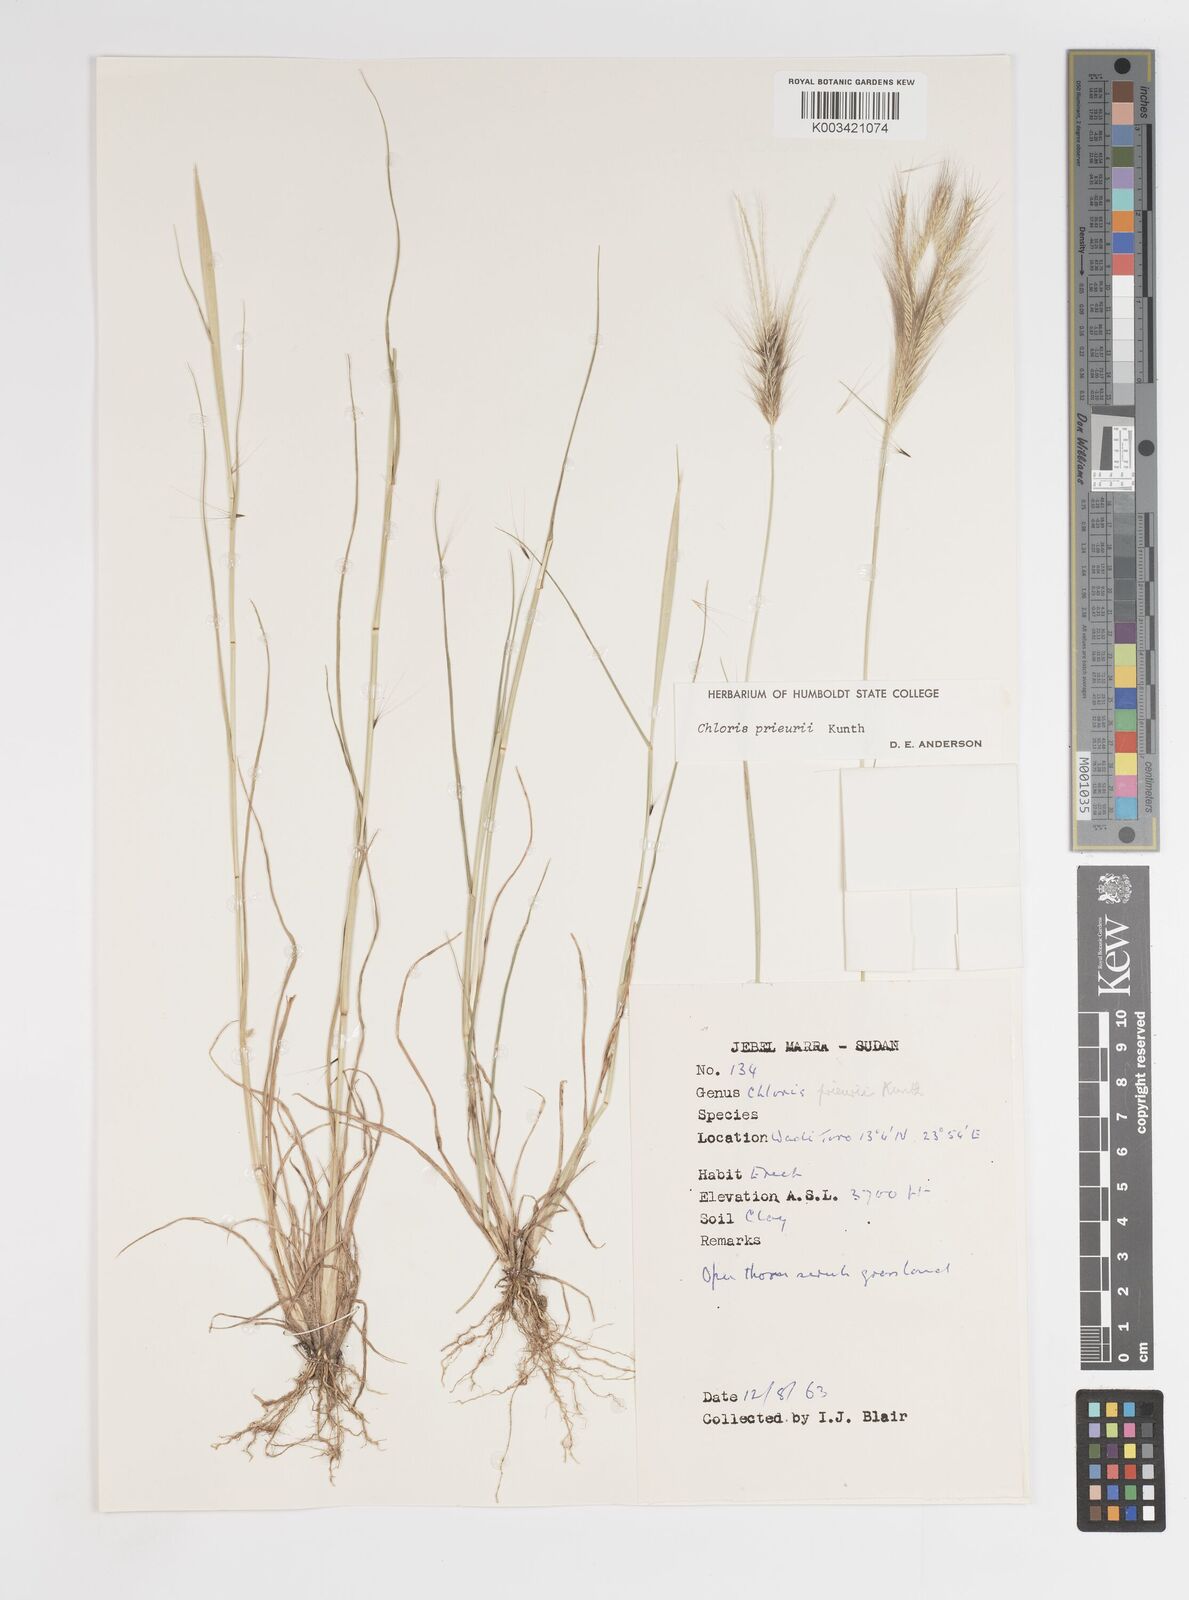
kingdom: Plantae
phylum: Tracheophyta
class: Liliopsida
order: Poales
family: Poaceae
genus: Enteropogon
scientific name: Enteropogon prieurii
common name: Prieur's umbrellagrass
